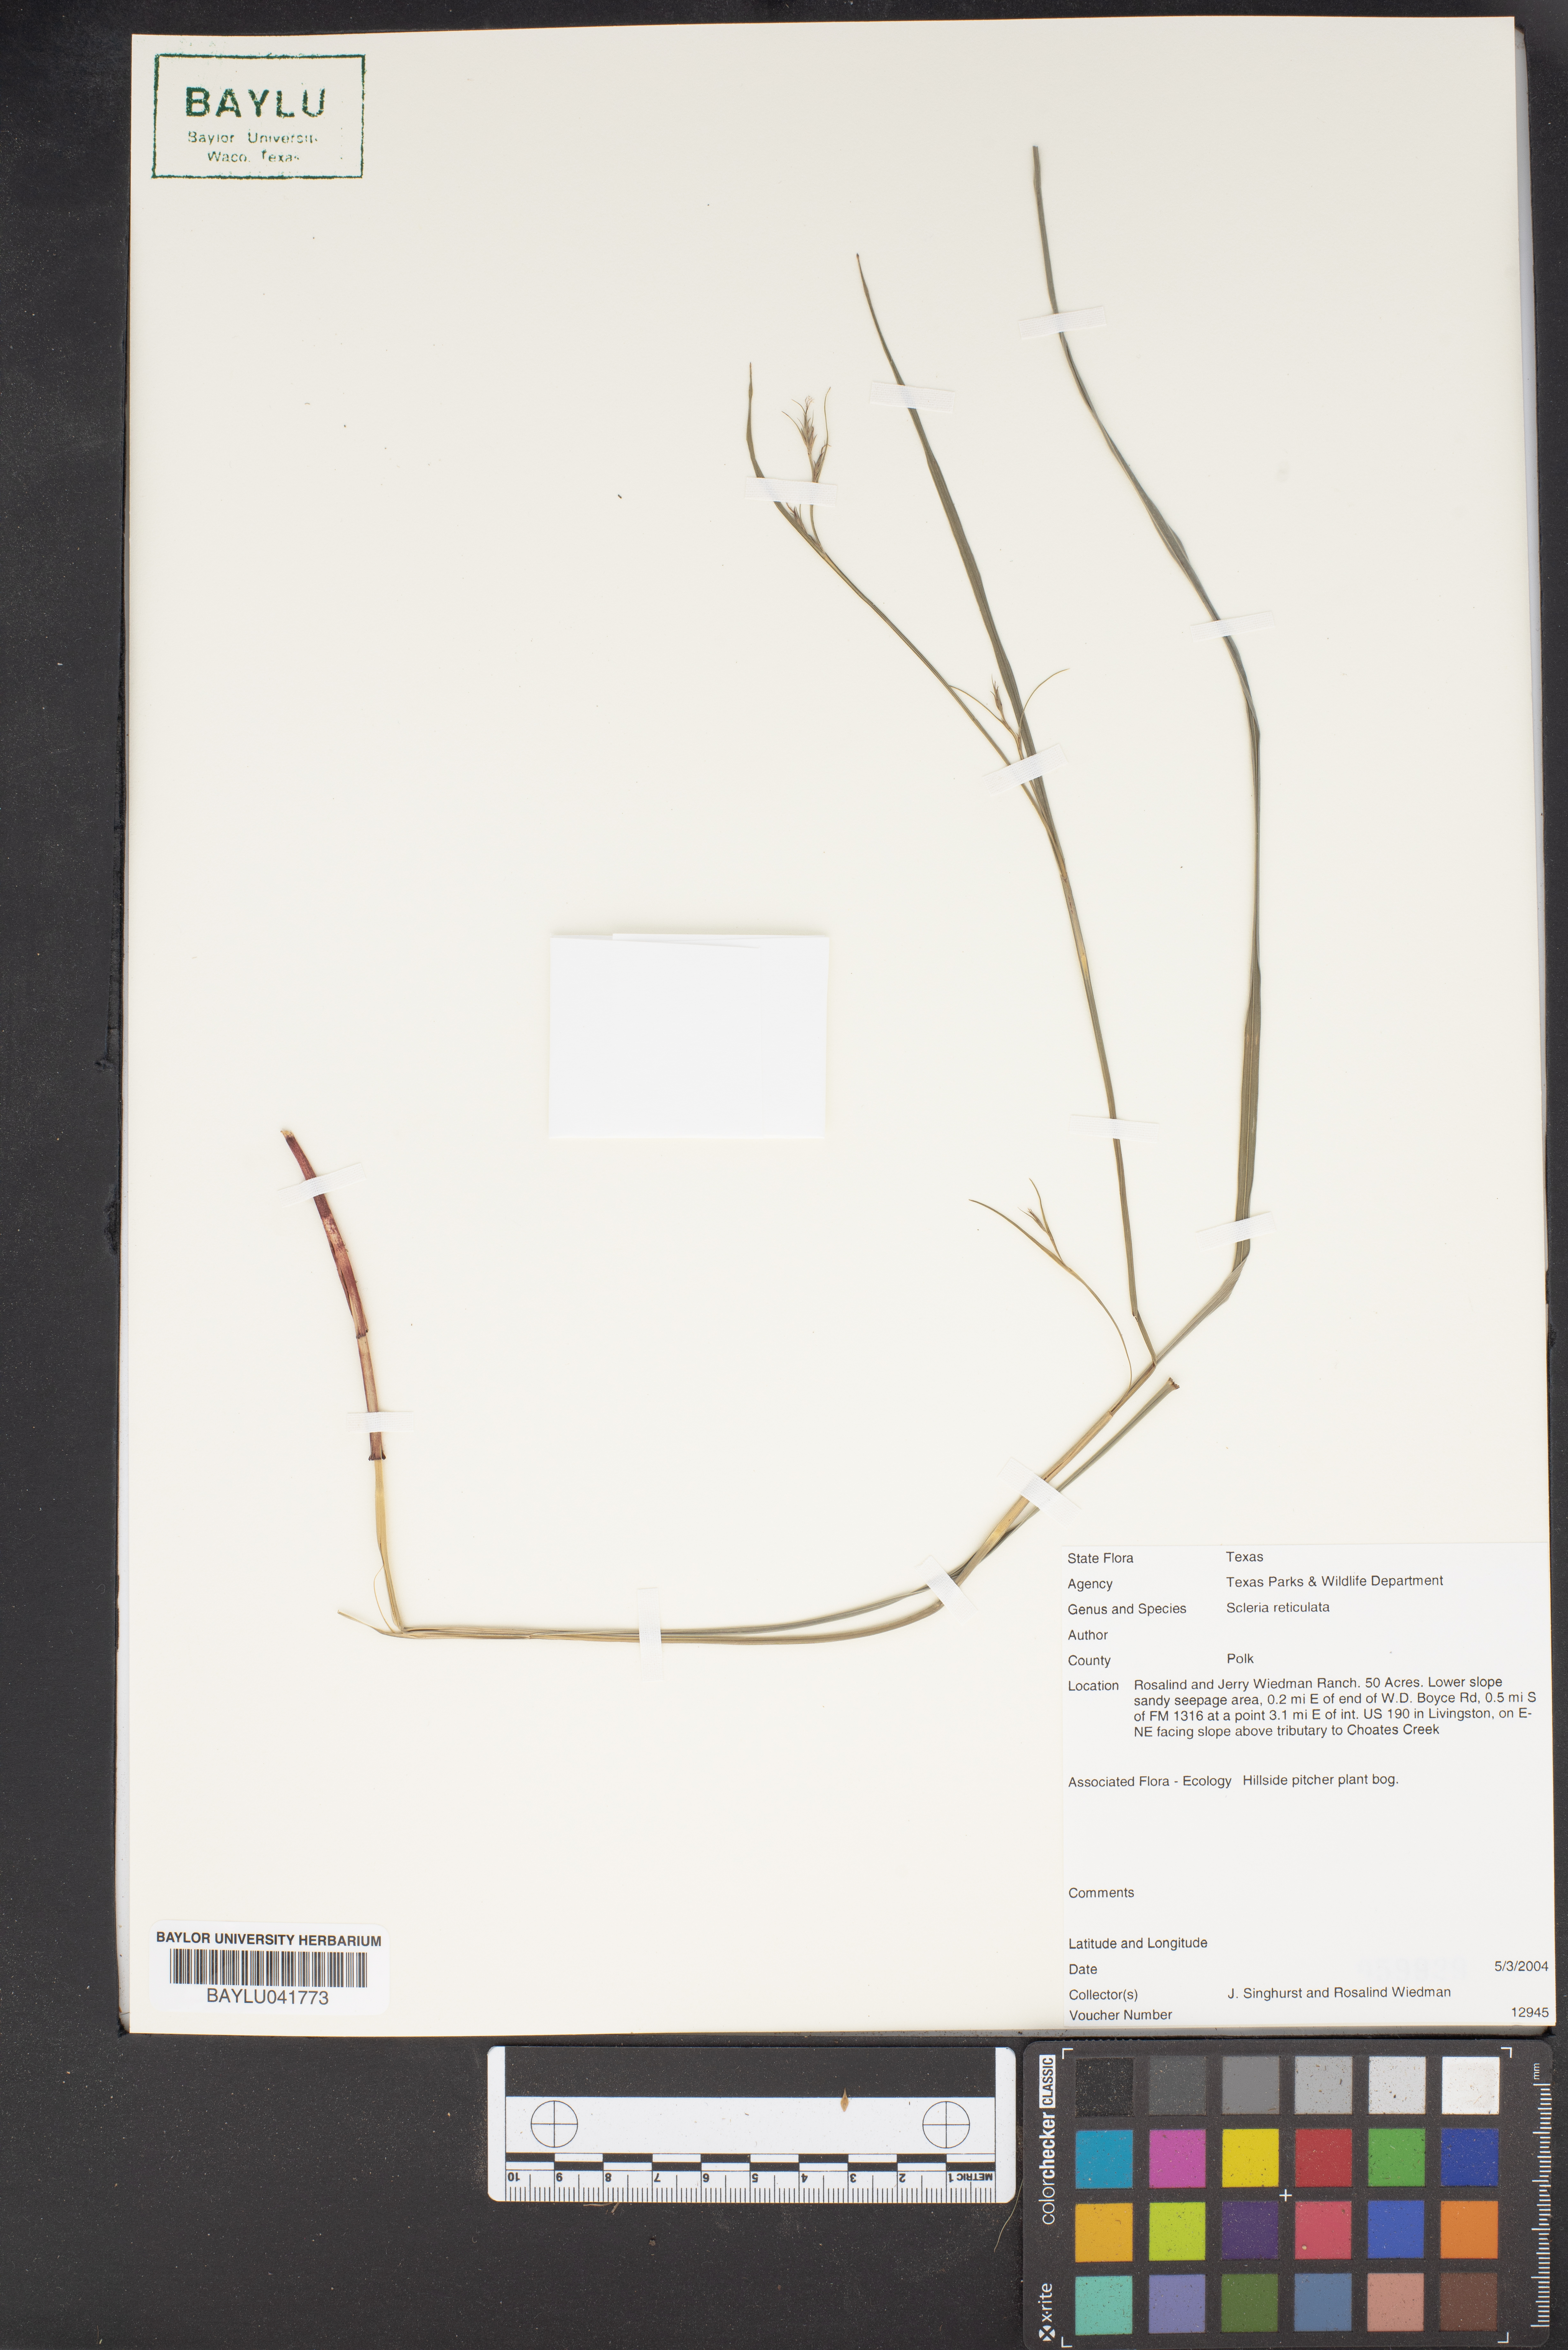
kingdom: Plantae
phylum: Tracheophyta
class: Liliopsida
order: Poales
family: Cyperaceae
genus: Diplacrum
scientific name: Diplacrum reticulatum
